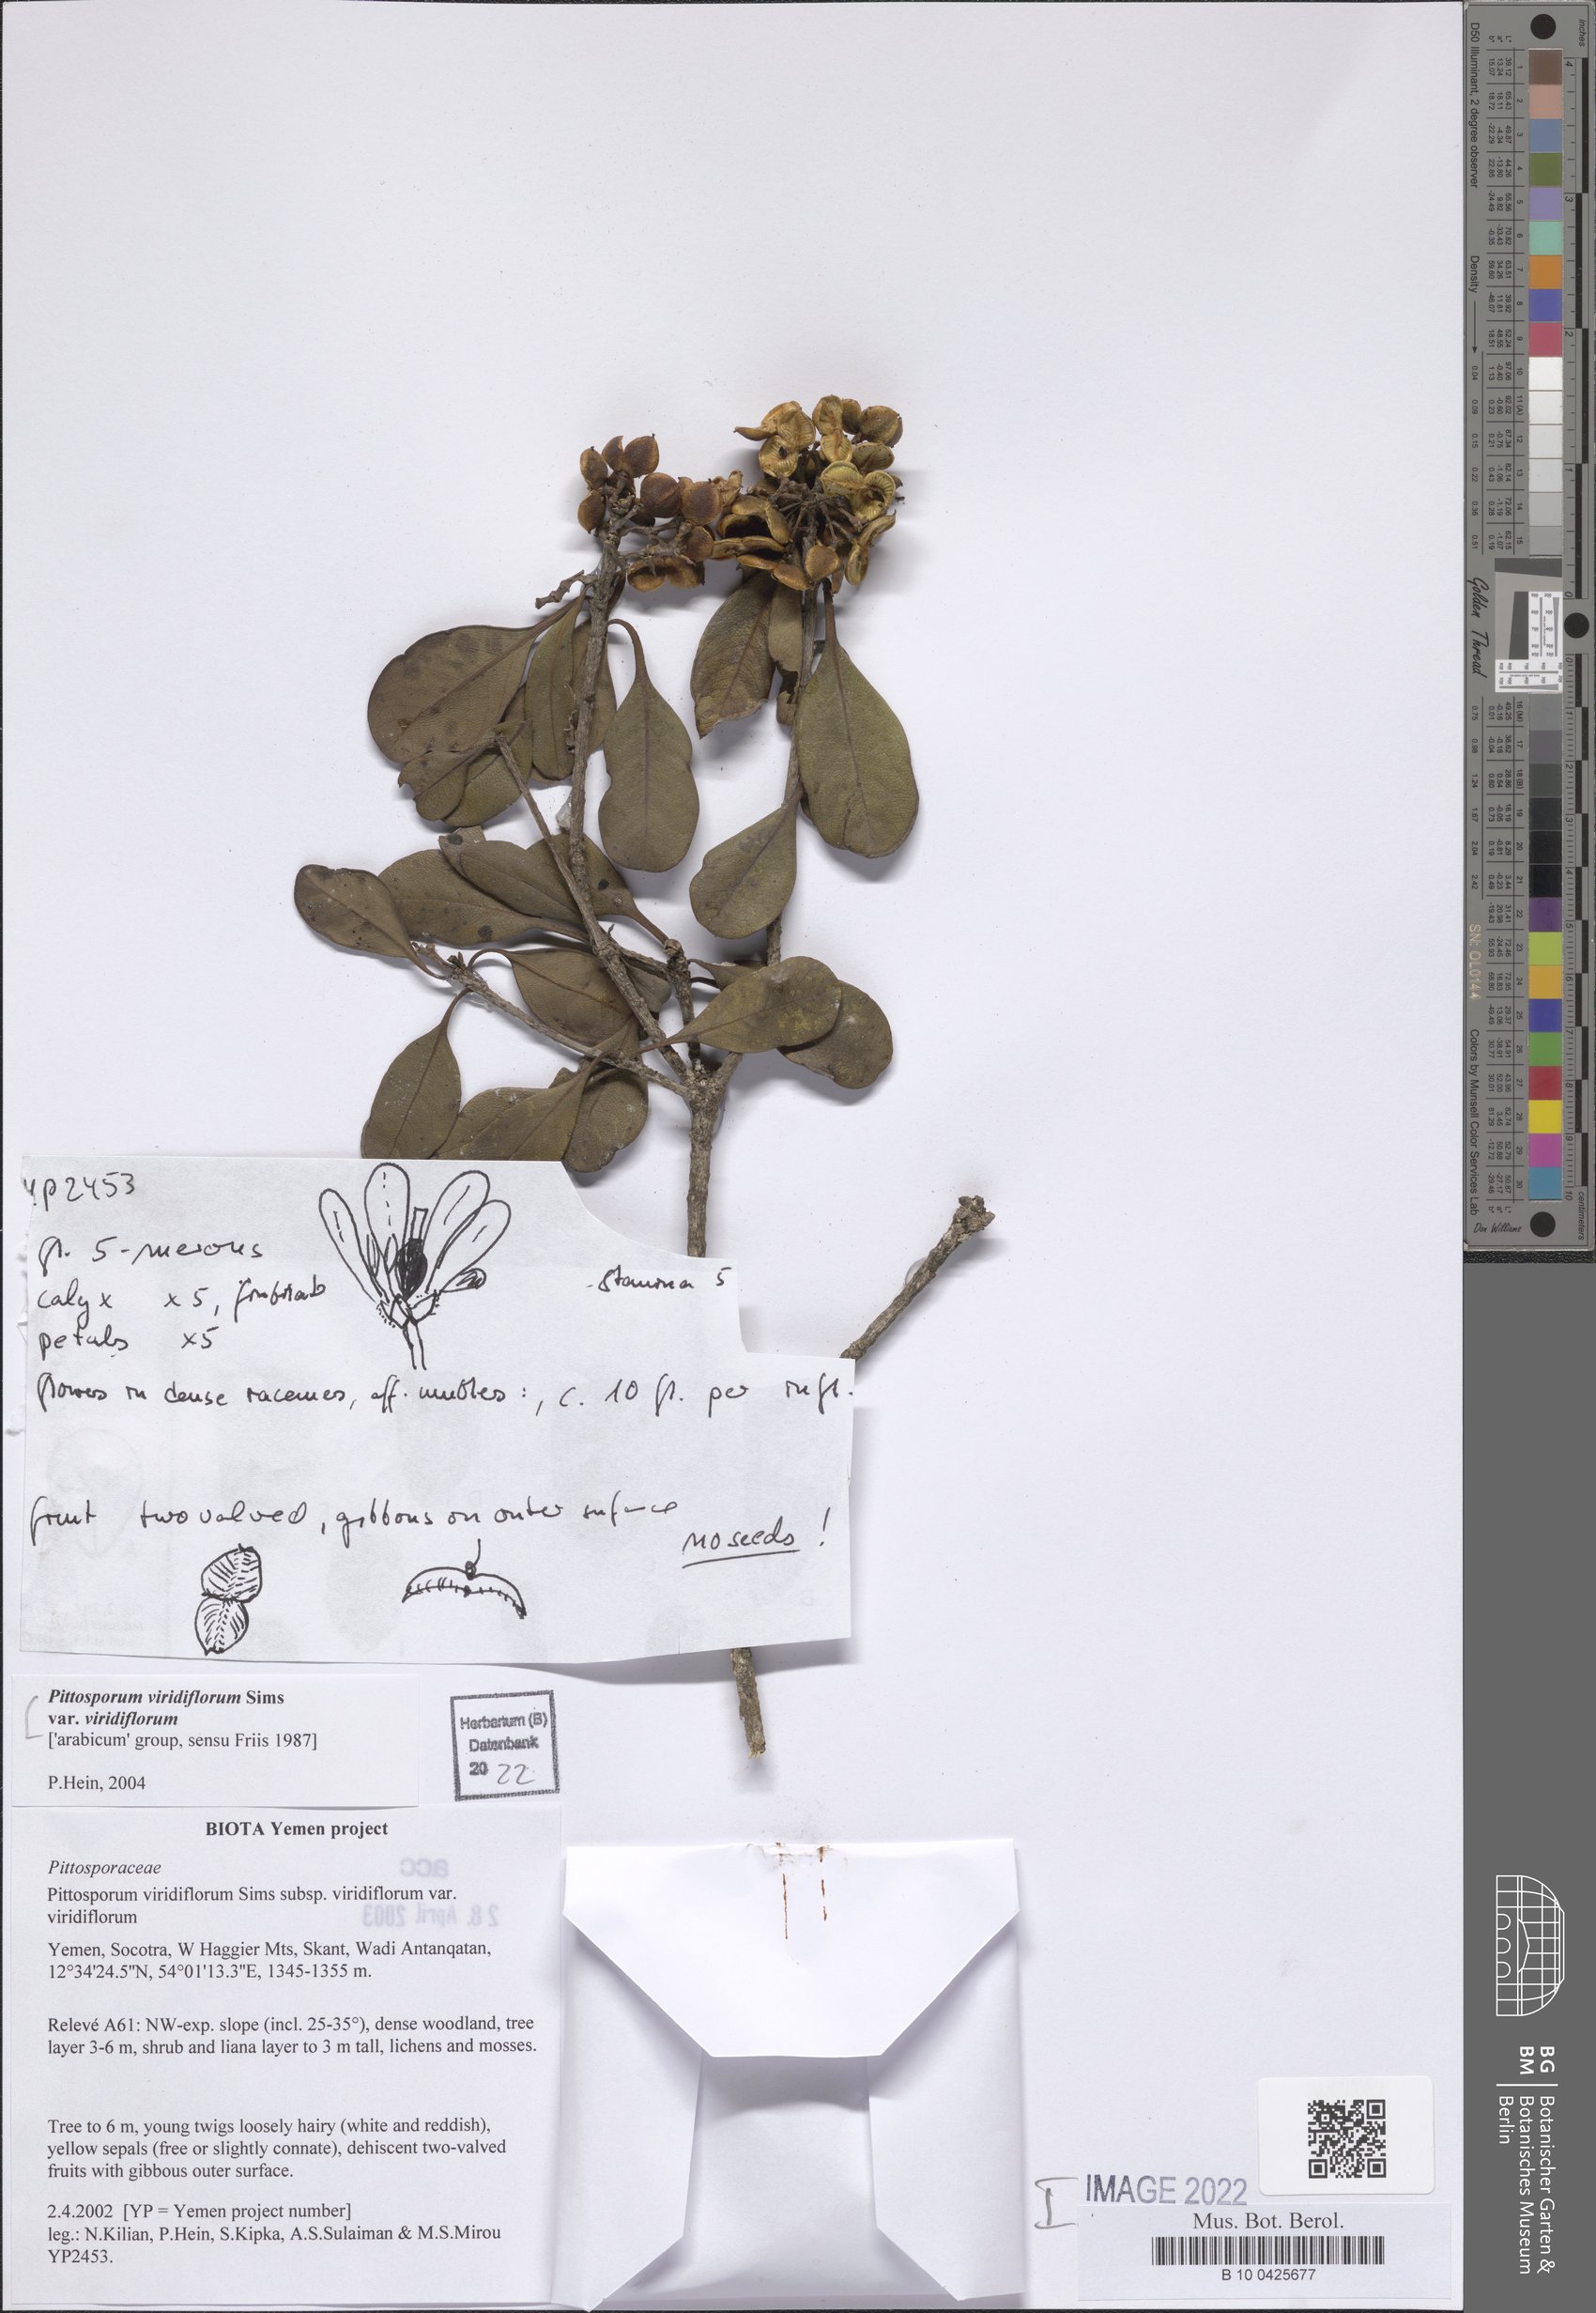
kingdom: Plantae
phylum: Tracheophyta
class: Magnoliopsida
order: Apiales
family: Pittosporaceae
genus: Pittosporum
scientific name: Pittosporum viridiflorum
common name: Cape cheesewood
